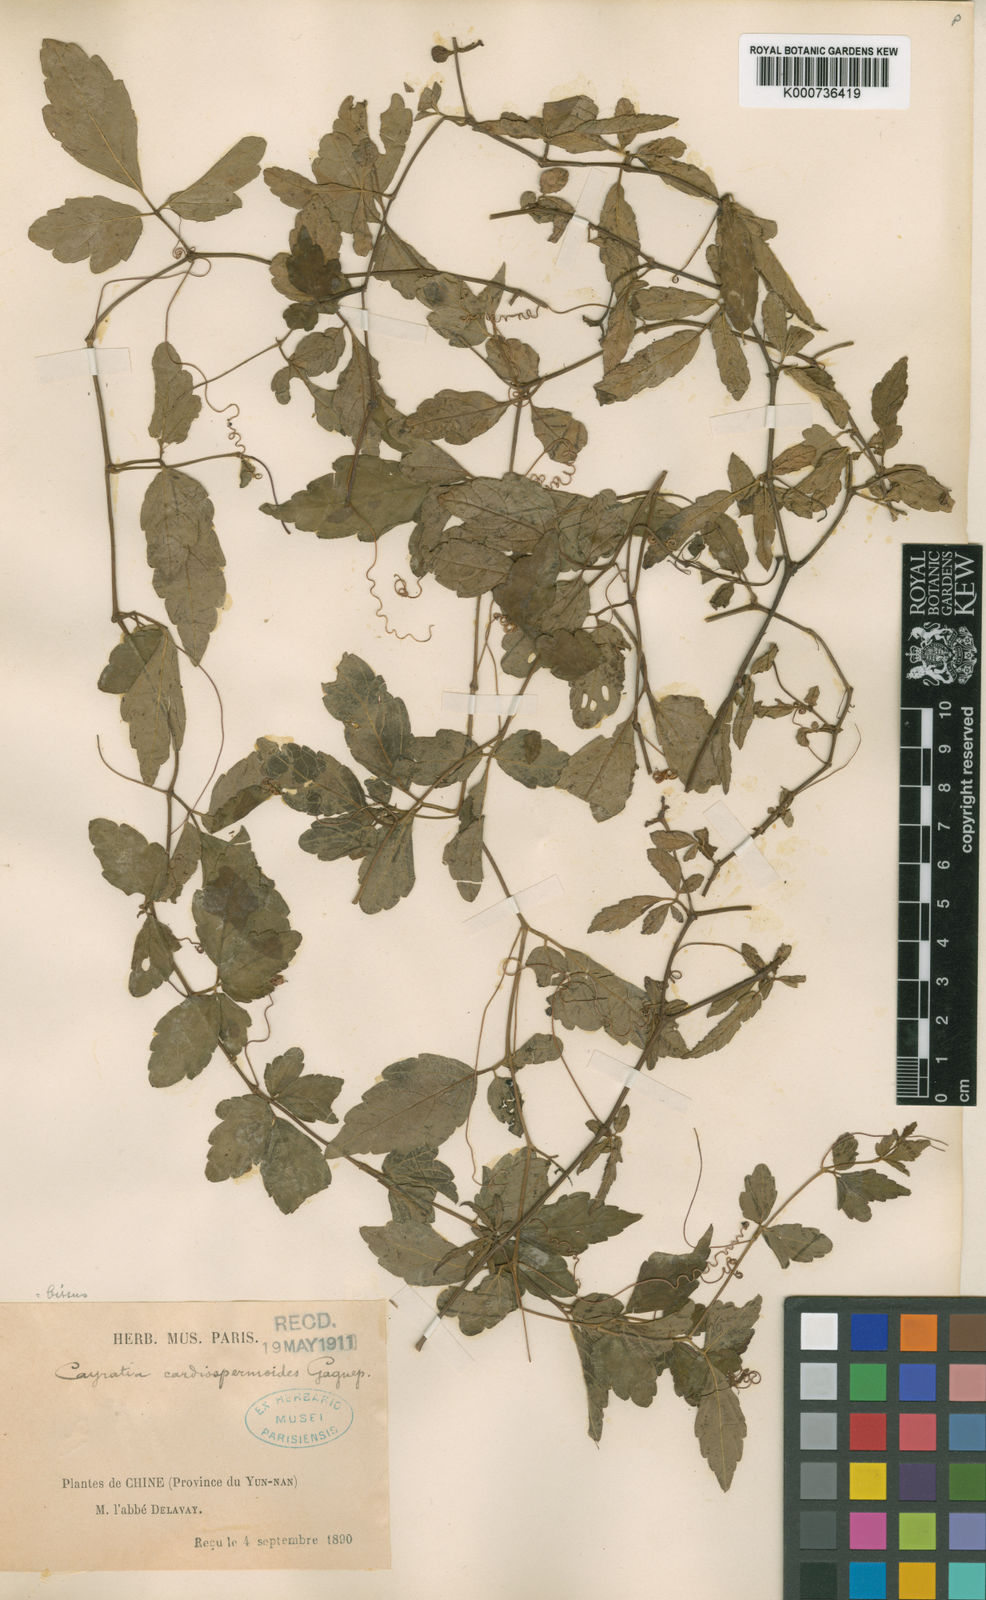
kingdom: Plantae
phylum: Tracheophyta
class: Magnoliopsida
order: Vitales
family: Vitaceae
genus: Causonis
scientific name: Causonis cardiospermoides
